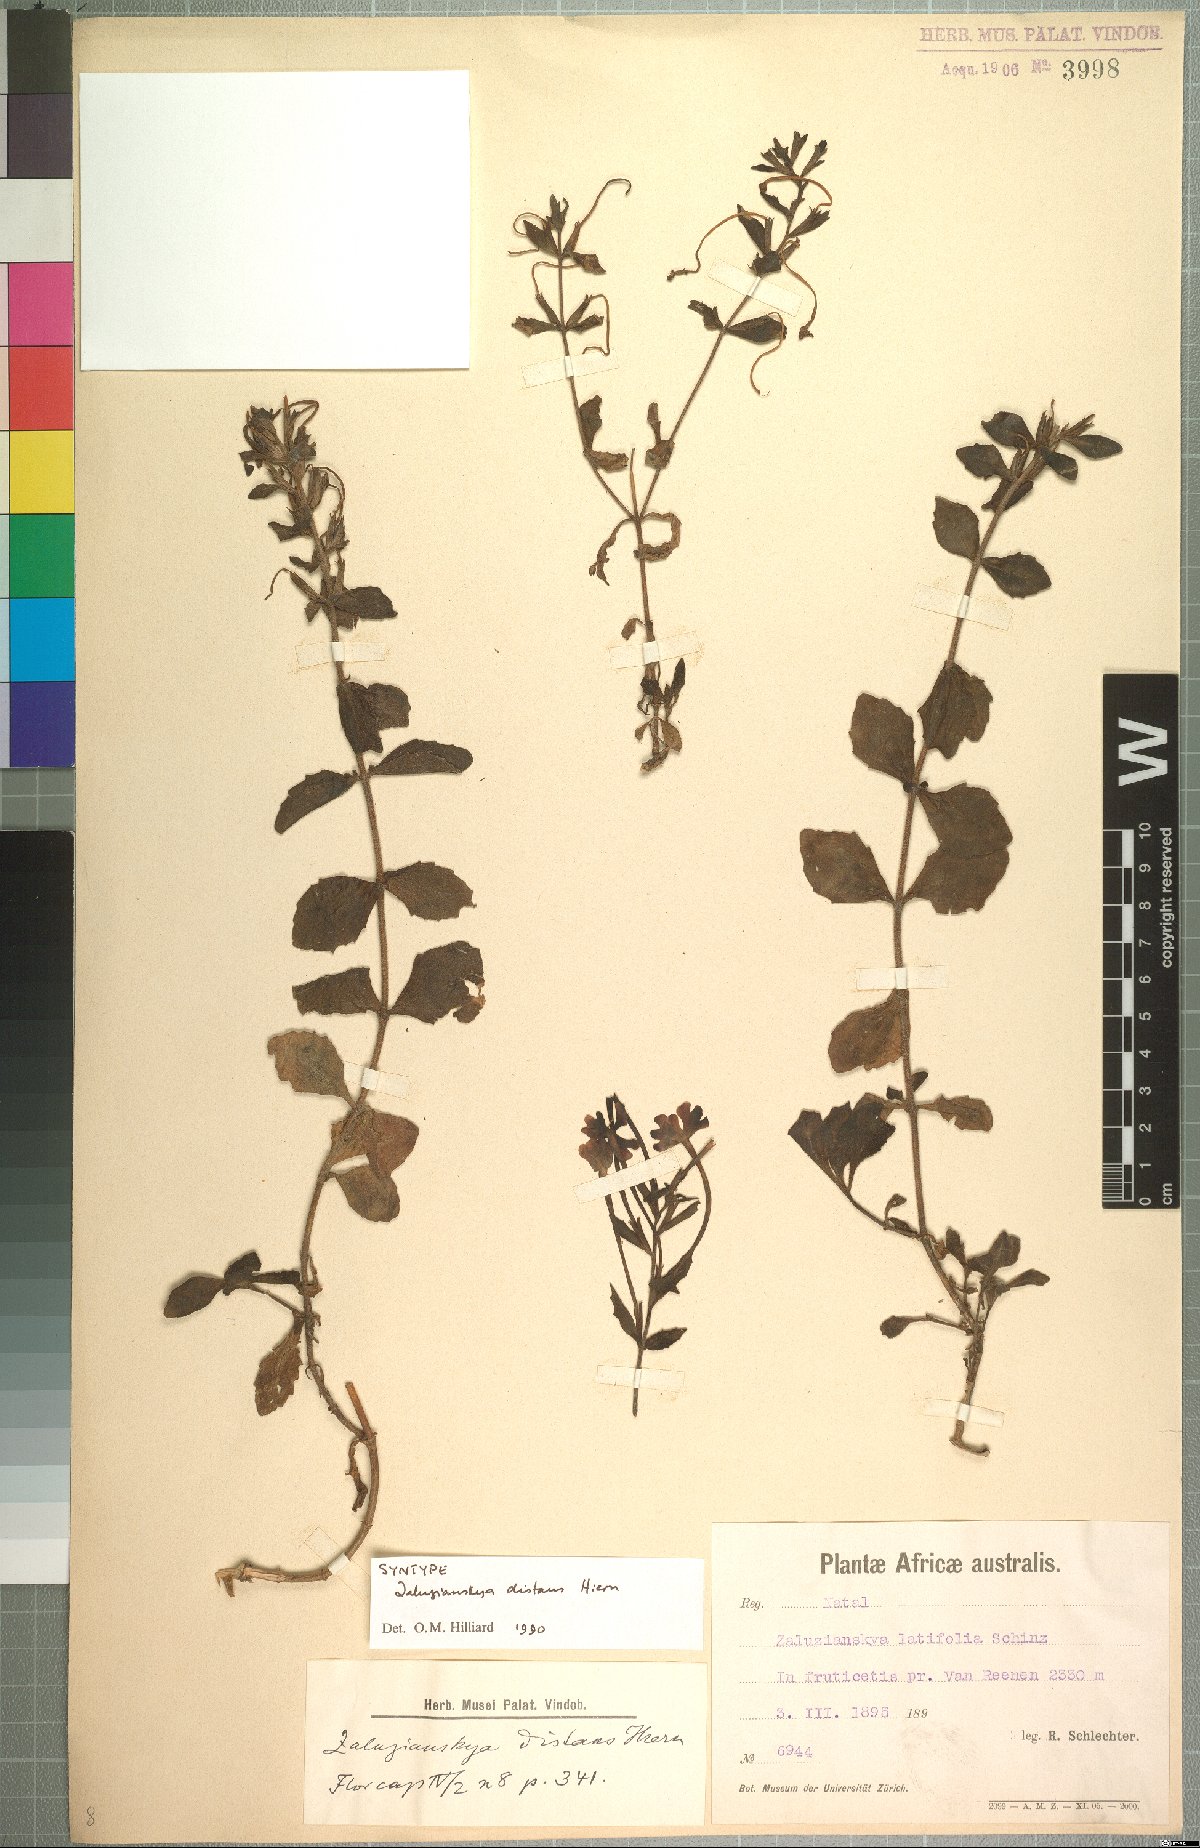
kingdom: Plantae
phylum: Tracheophyta
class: Magnoliopsida
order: Lamiales
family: Scrophulariaceae
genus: Zaluzianskya
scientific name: Zaluzianskya distans
